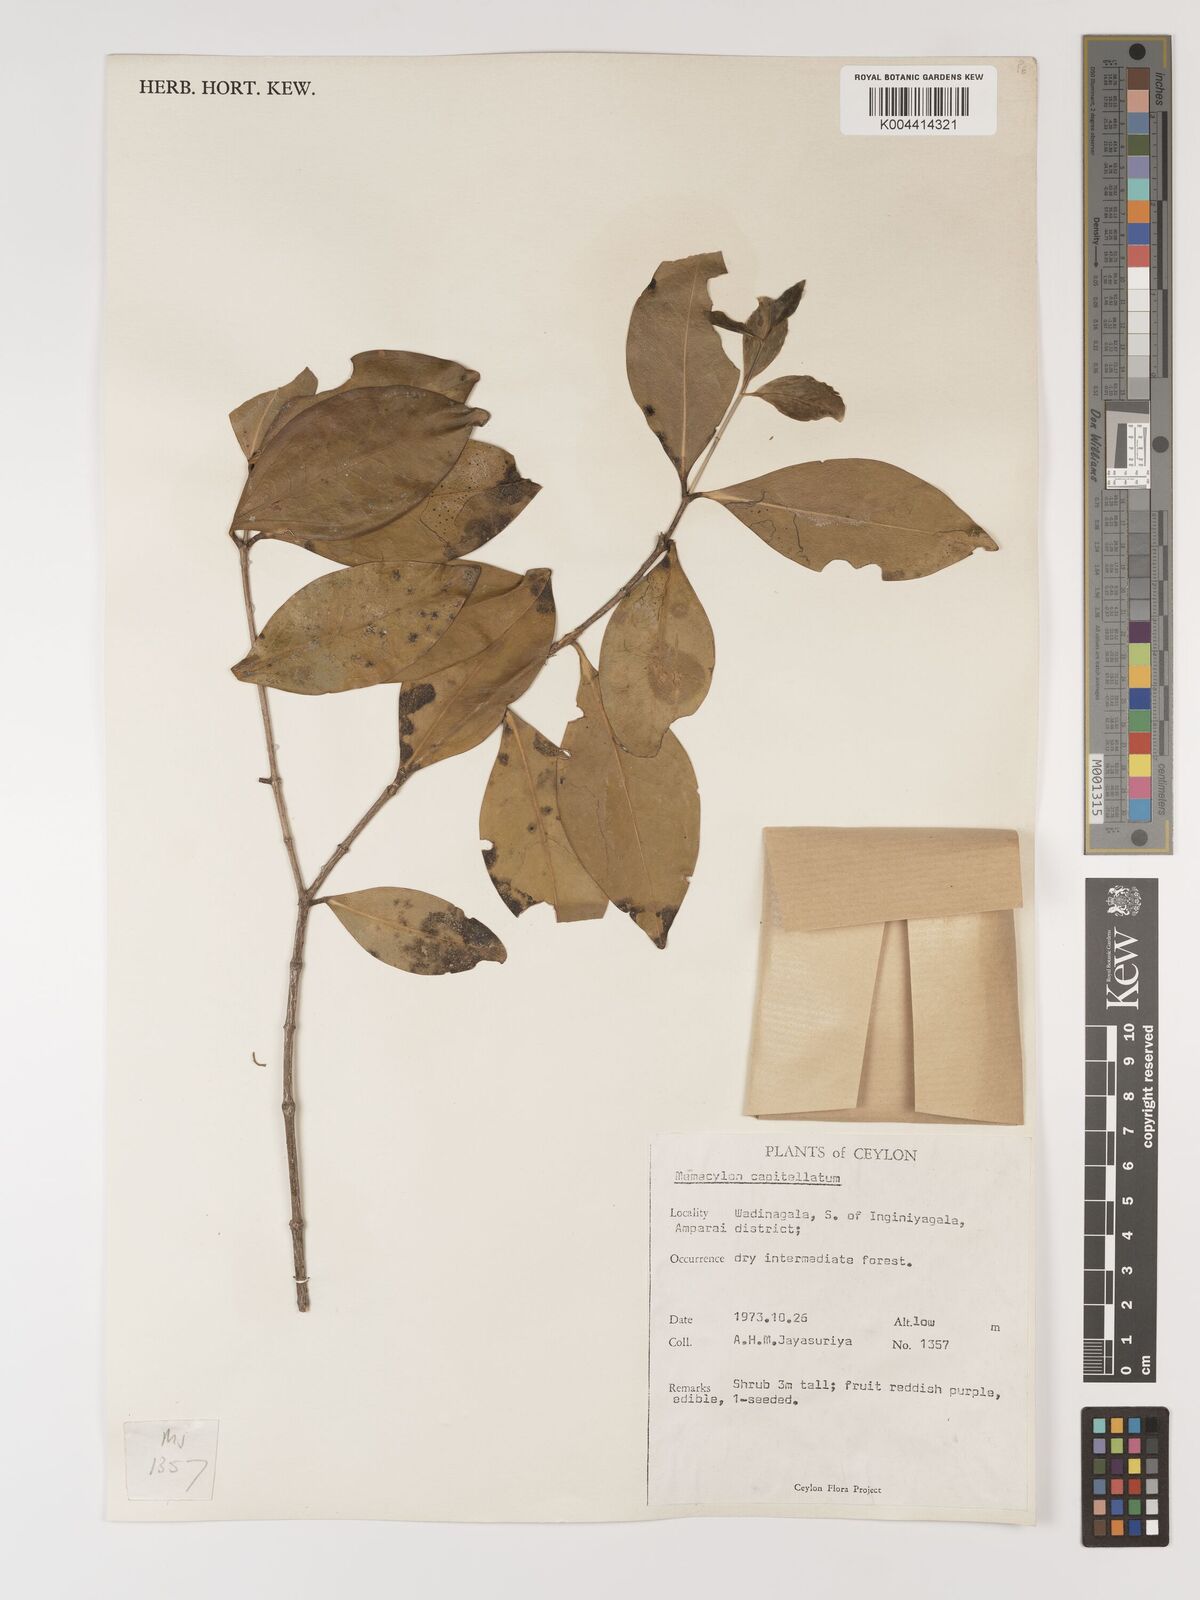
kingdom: Plantae
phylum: Tracheophyta
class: Magnoliopsida
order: Myrtales
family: Melastomataceae
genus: Memecylon
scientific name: Memecylon capitellatum
